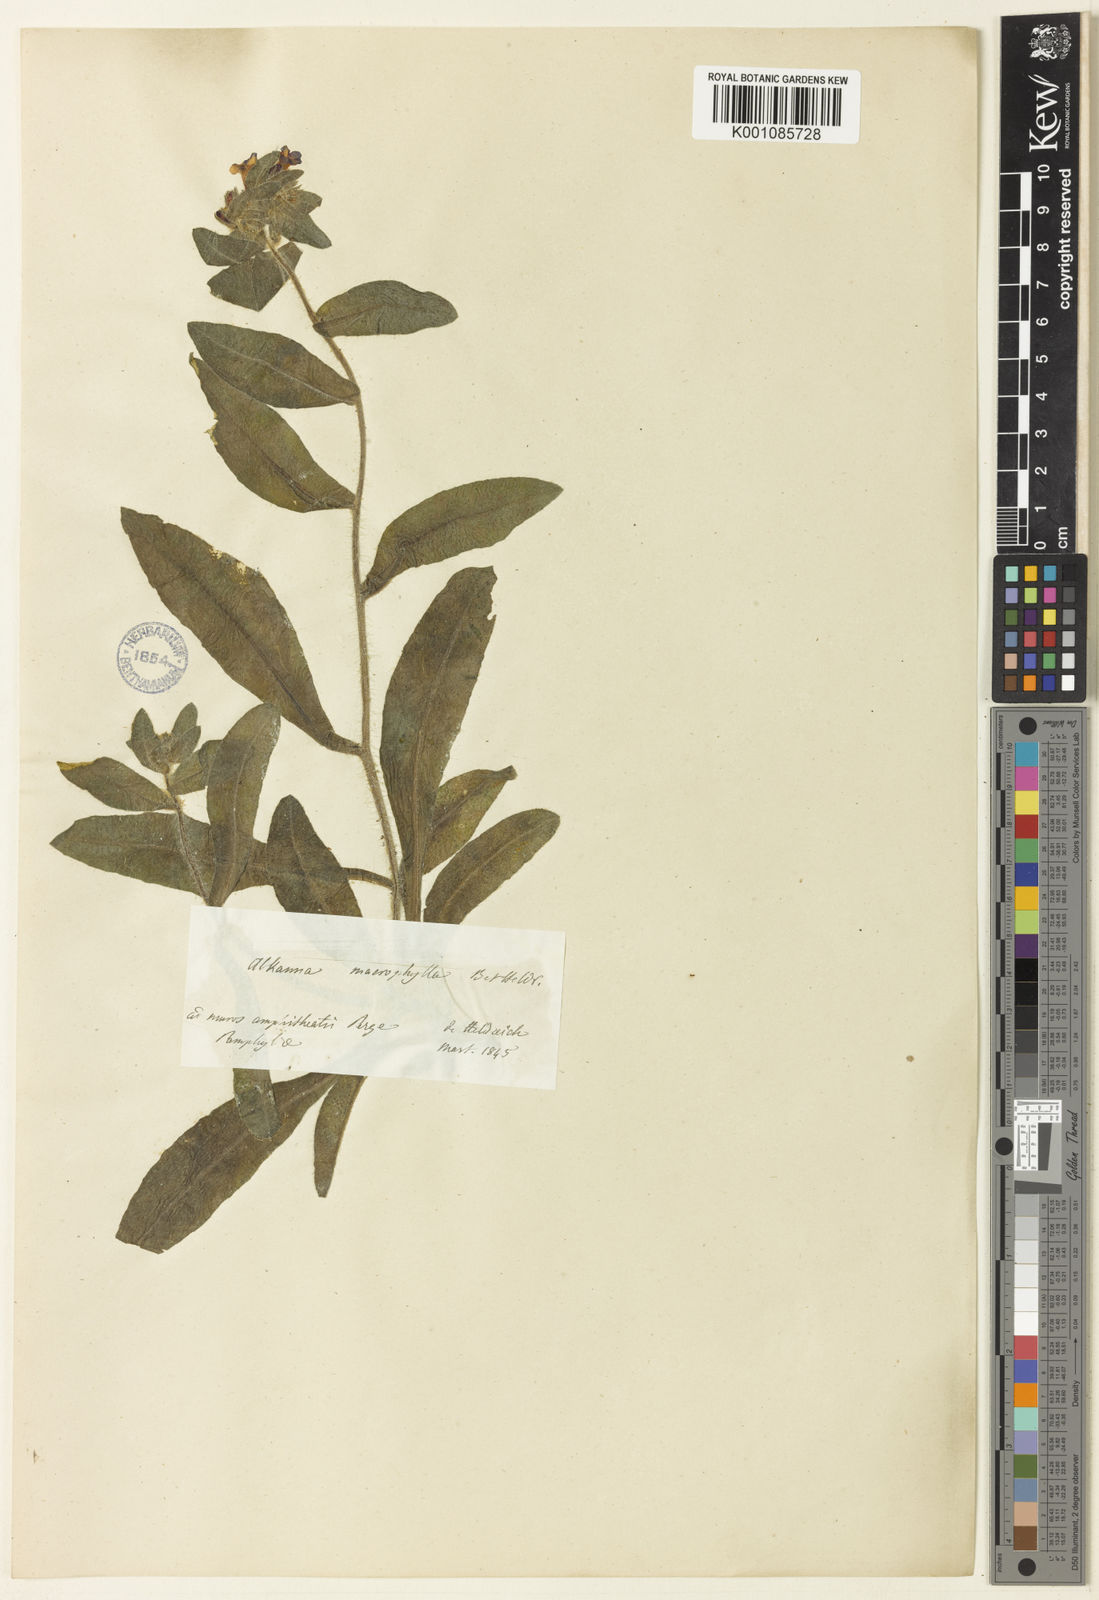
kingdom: Plantae
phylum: Tracheophyta
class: Magnoliopsida
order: Boraginales
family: Boraginaceae
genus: Alkanna
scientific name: Alkanna macrophylla
